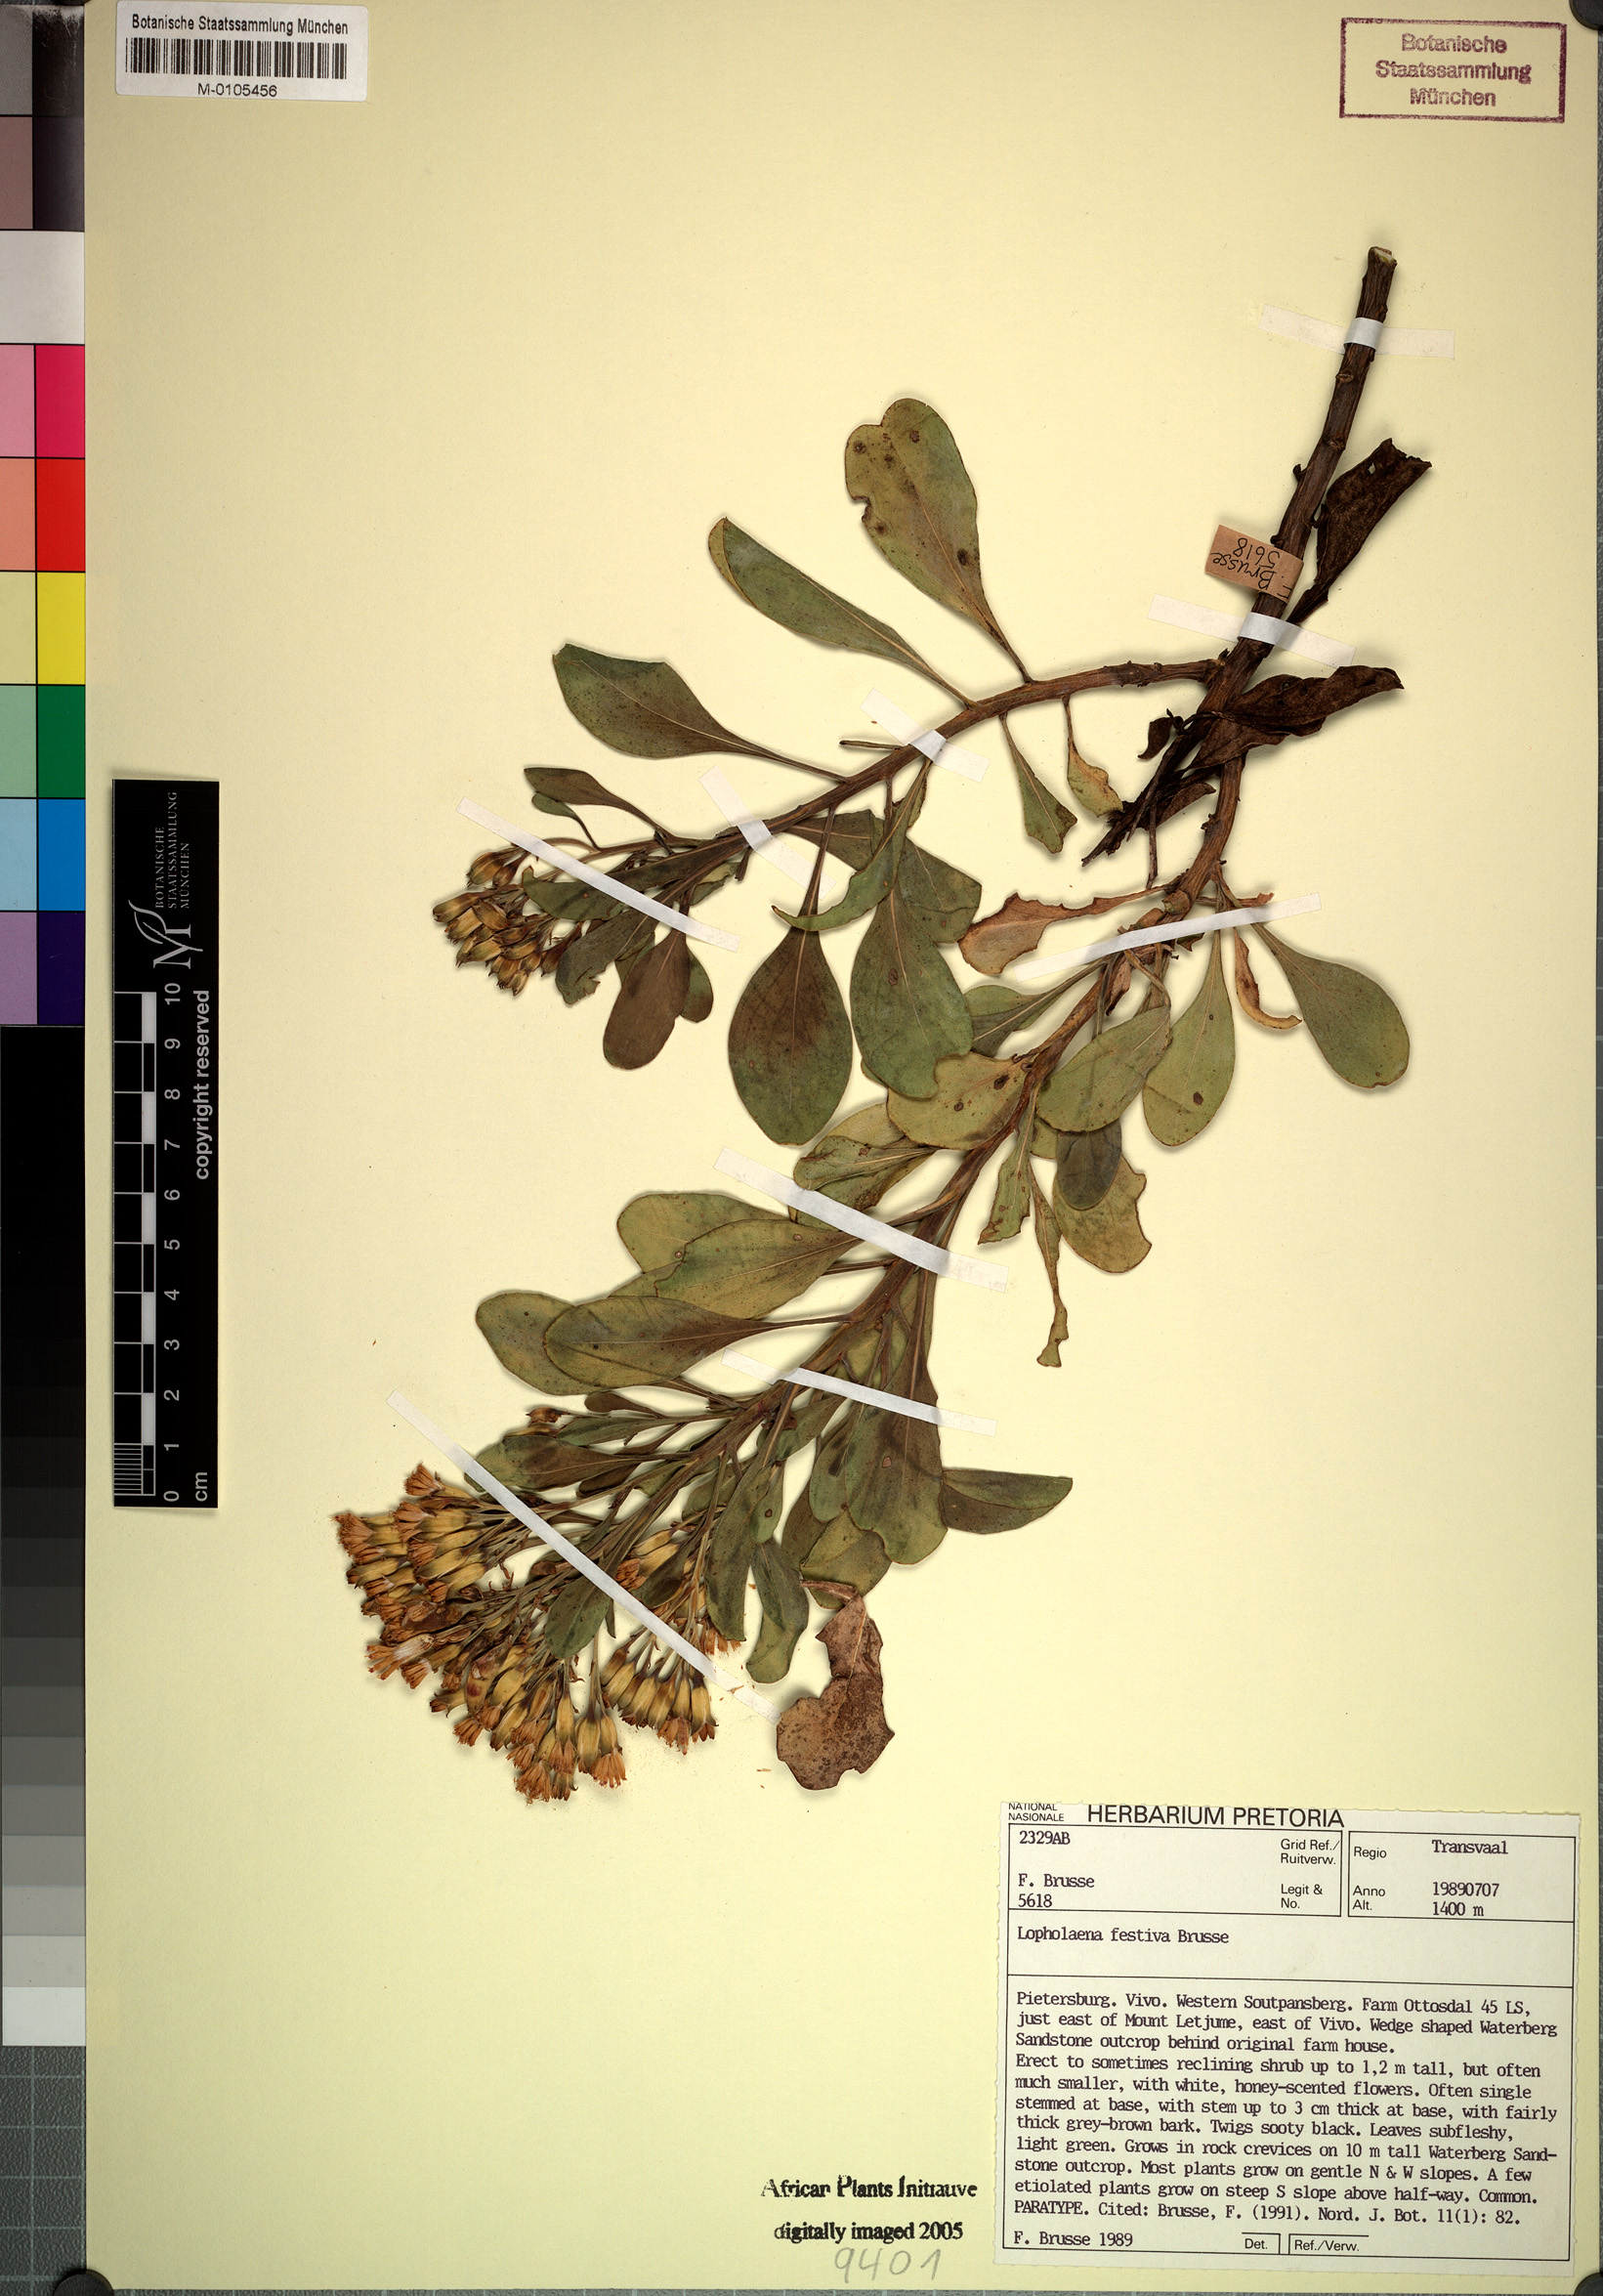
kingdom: Plantae
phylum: Tracheophyta
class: Magnoliopsida
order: Asterales
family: Asteraceae
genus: Lopholaena
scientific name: Lopholaena festiva
